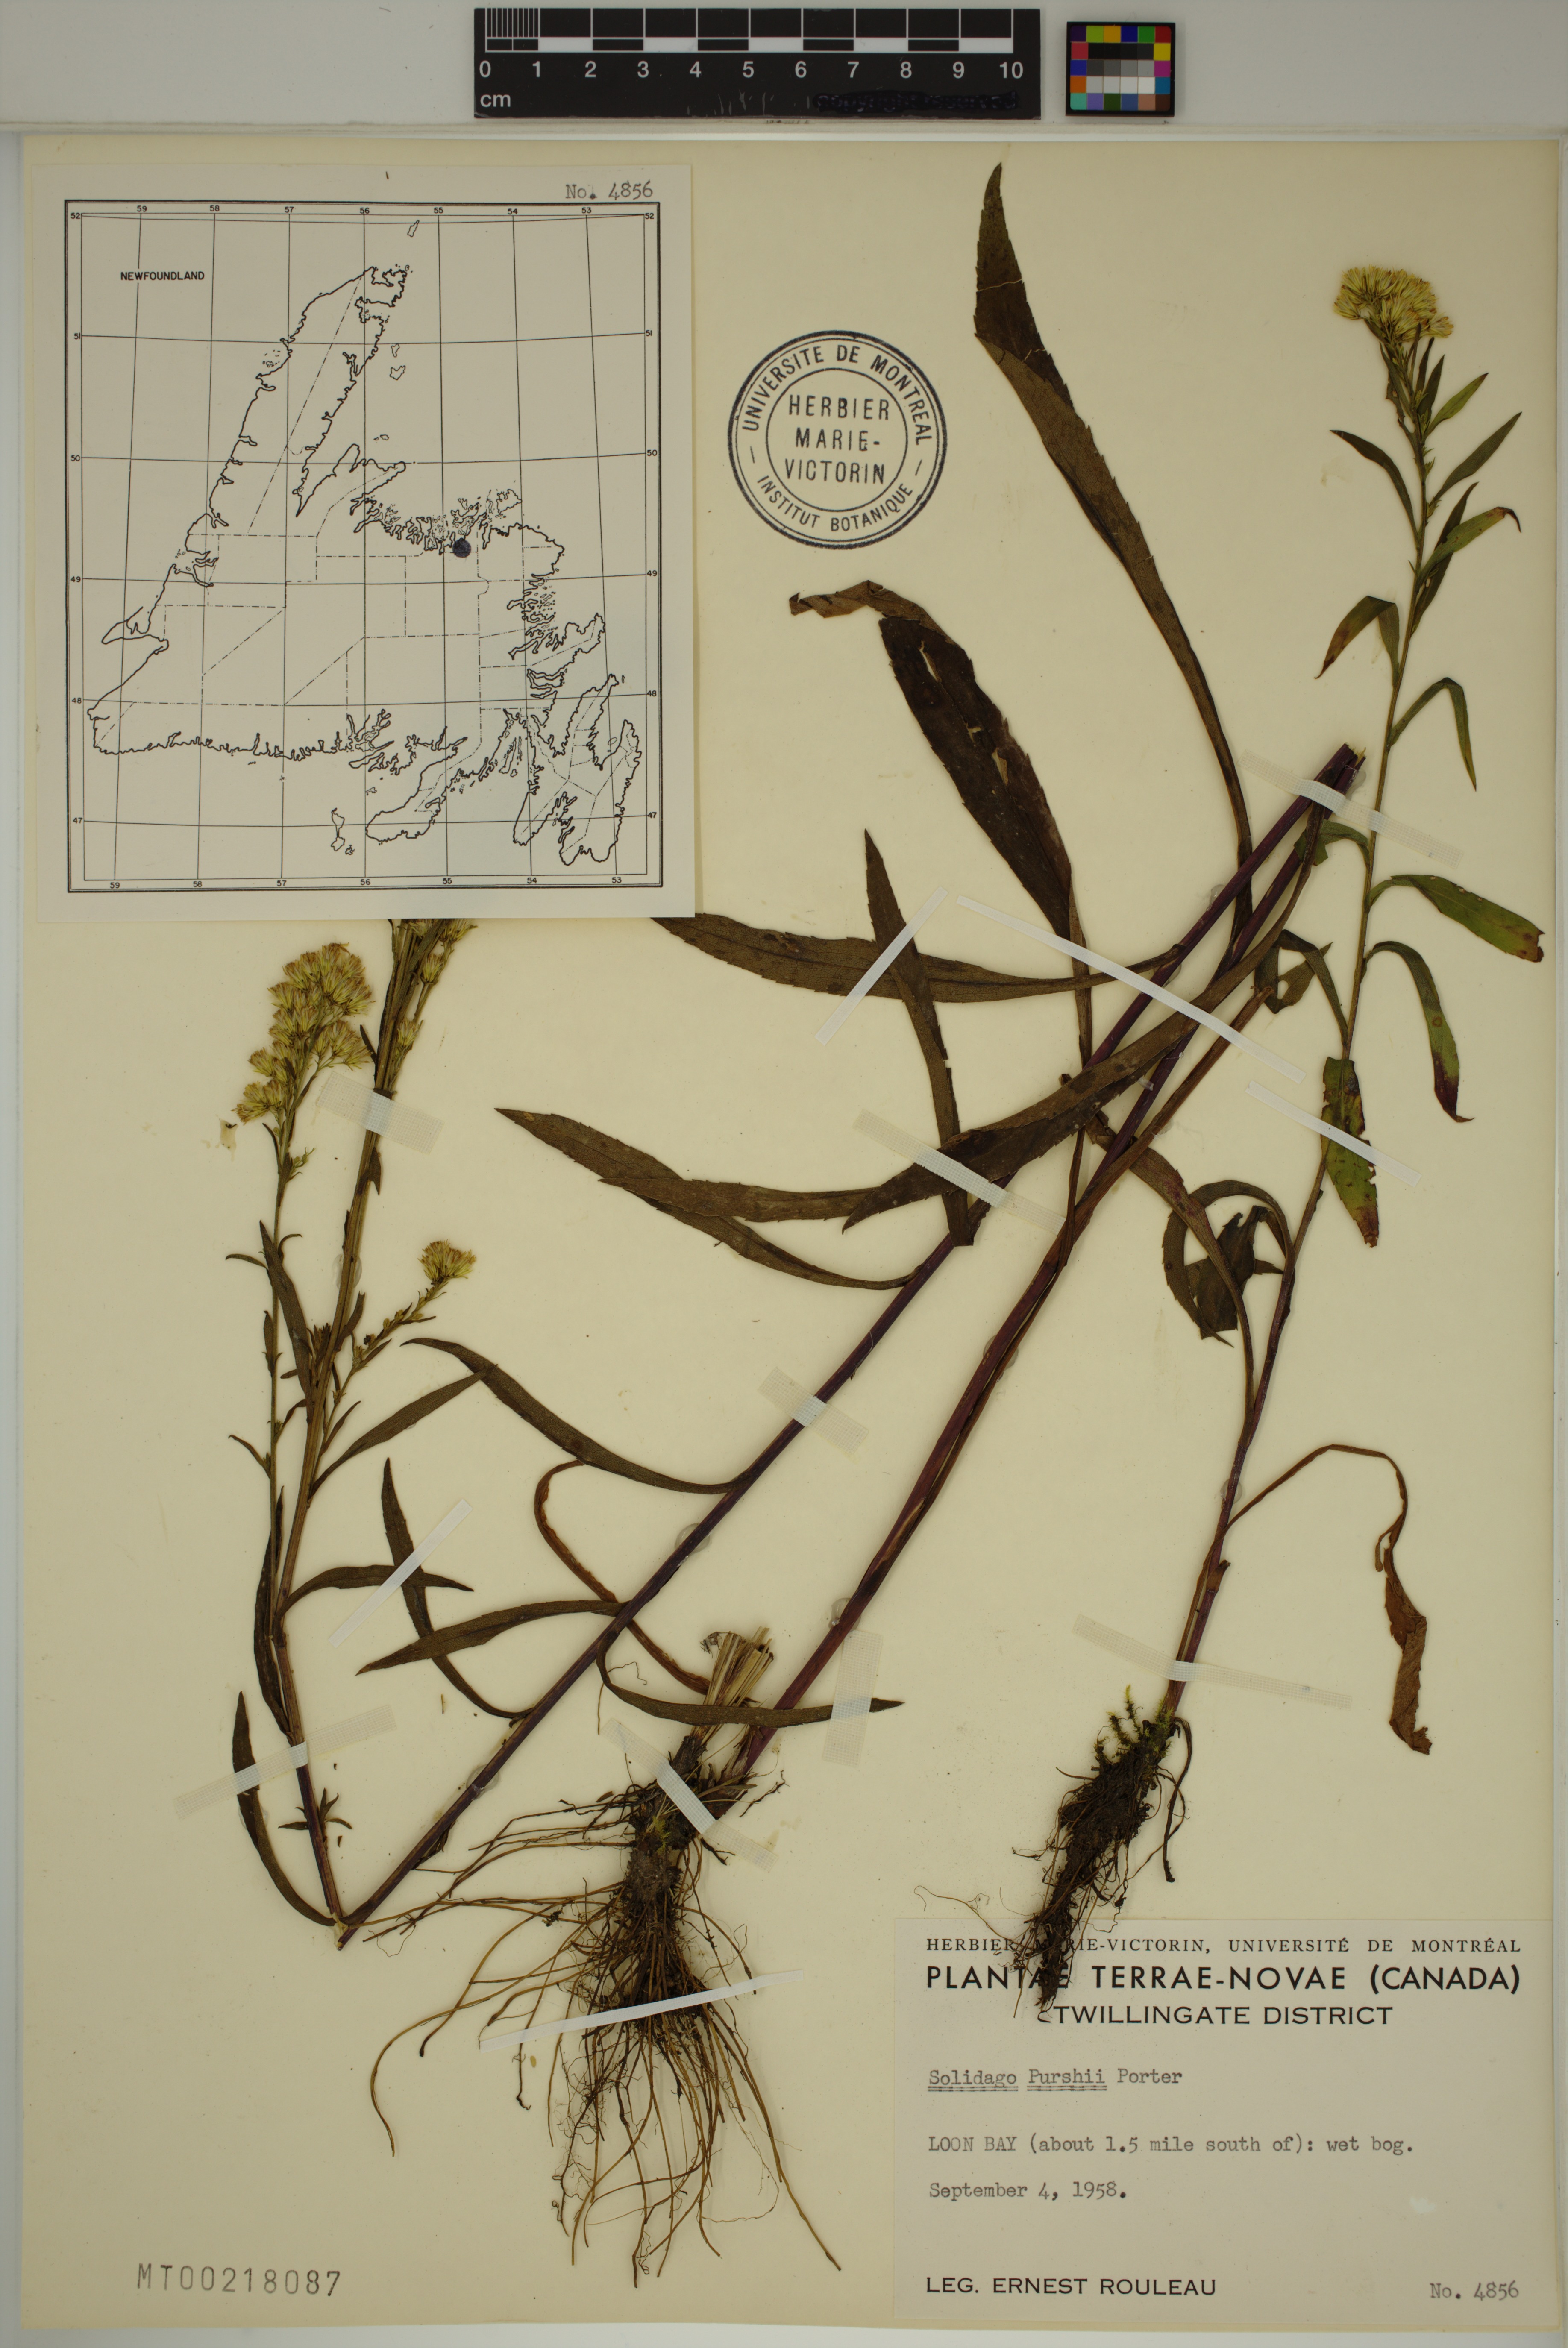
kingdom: Plantae
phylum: Tracheophyta
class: Magnoliopsida
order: Asterales
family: Asteraceae
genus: Solidago
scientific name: Solidago uliginosa
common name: Bog goldenrod
